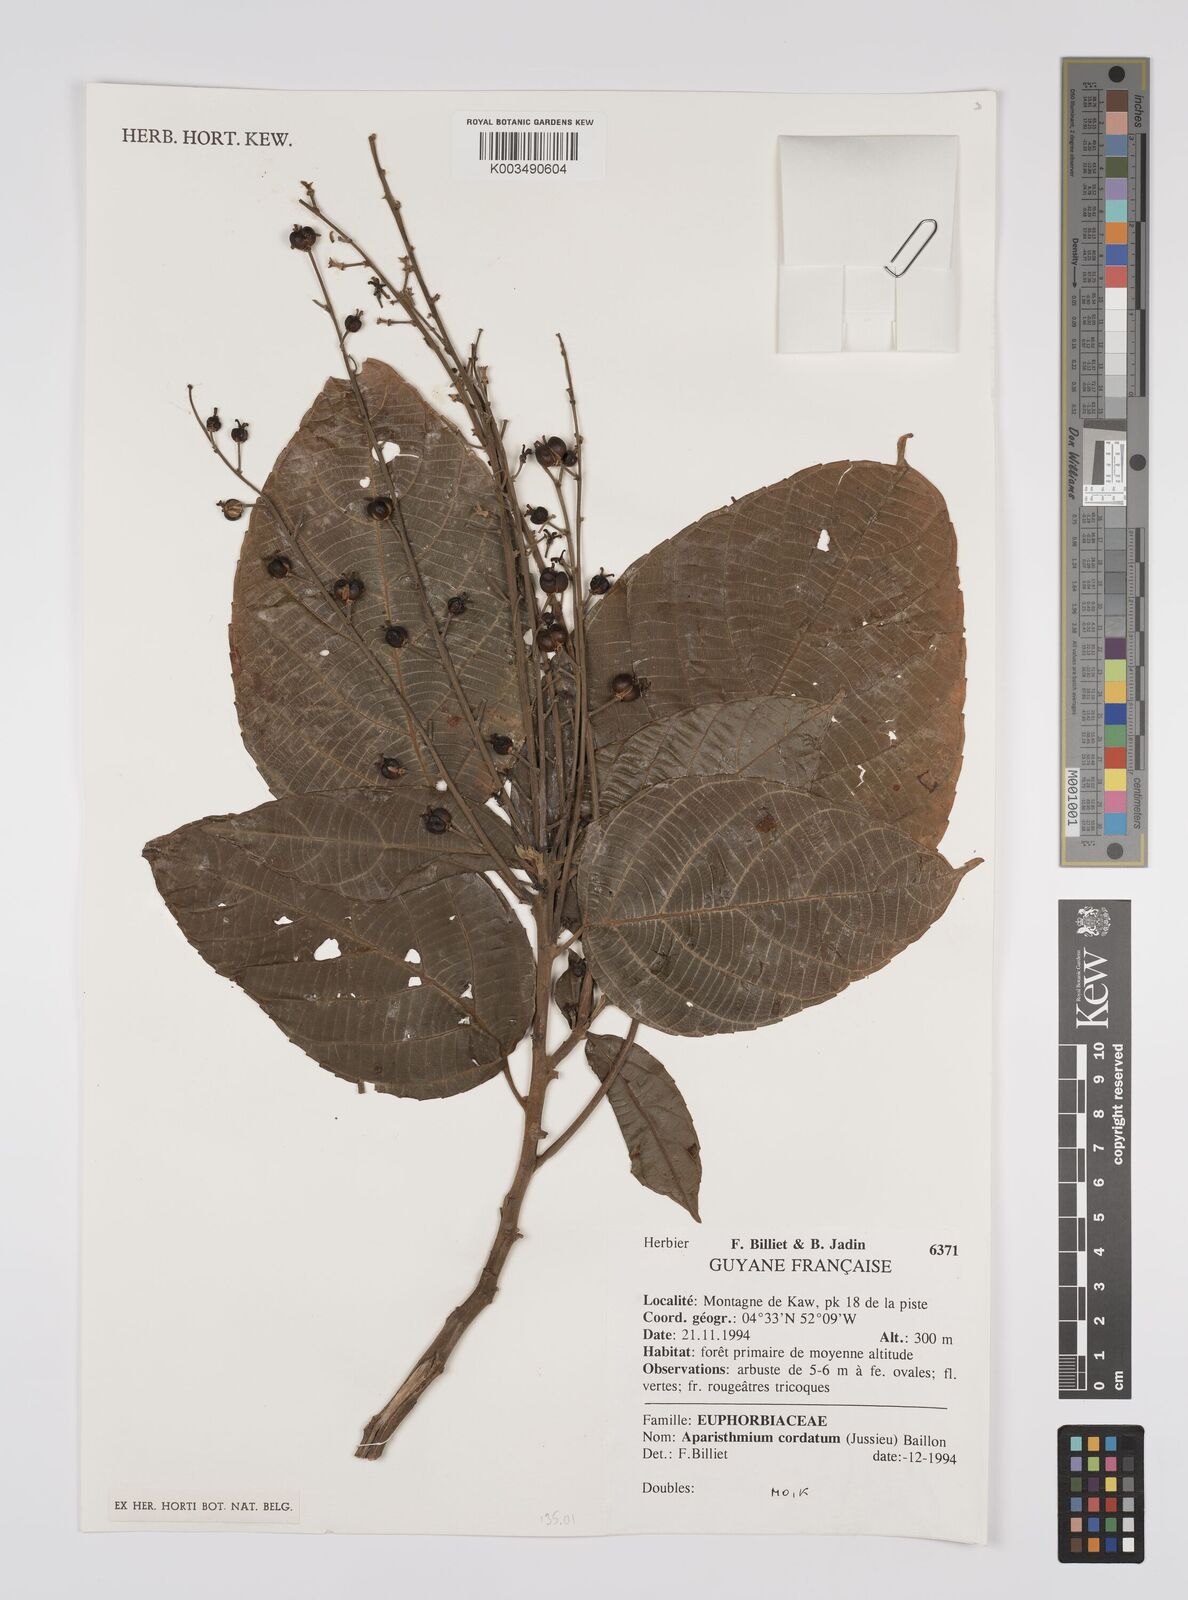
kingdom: Plantae
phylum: Tracheophyta
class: Magnoliopsida
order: Malpighiales
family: Euphorbiaceae
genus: Aparisthmium
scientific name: Aparisthmium cordatum
